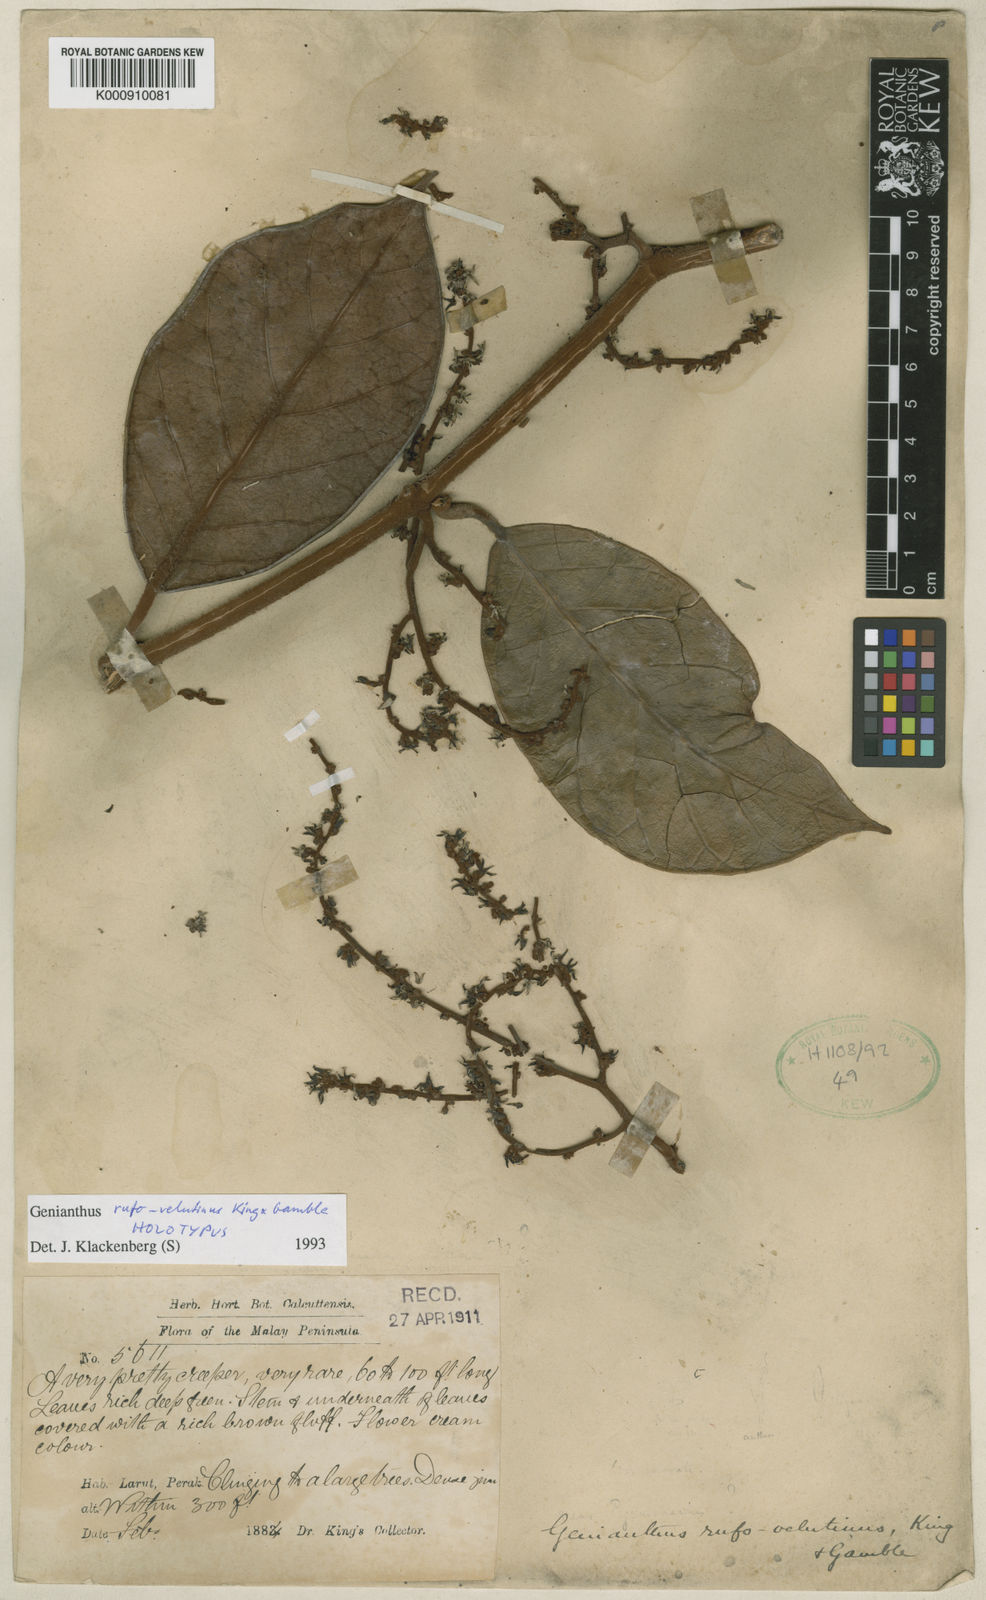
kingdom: Plantae
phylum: Tracheophyta
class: Magnoliopsida
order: Gentianales
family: Apocynaceae
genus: Secamone
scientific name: Secamone
